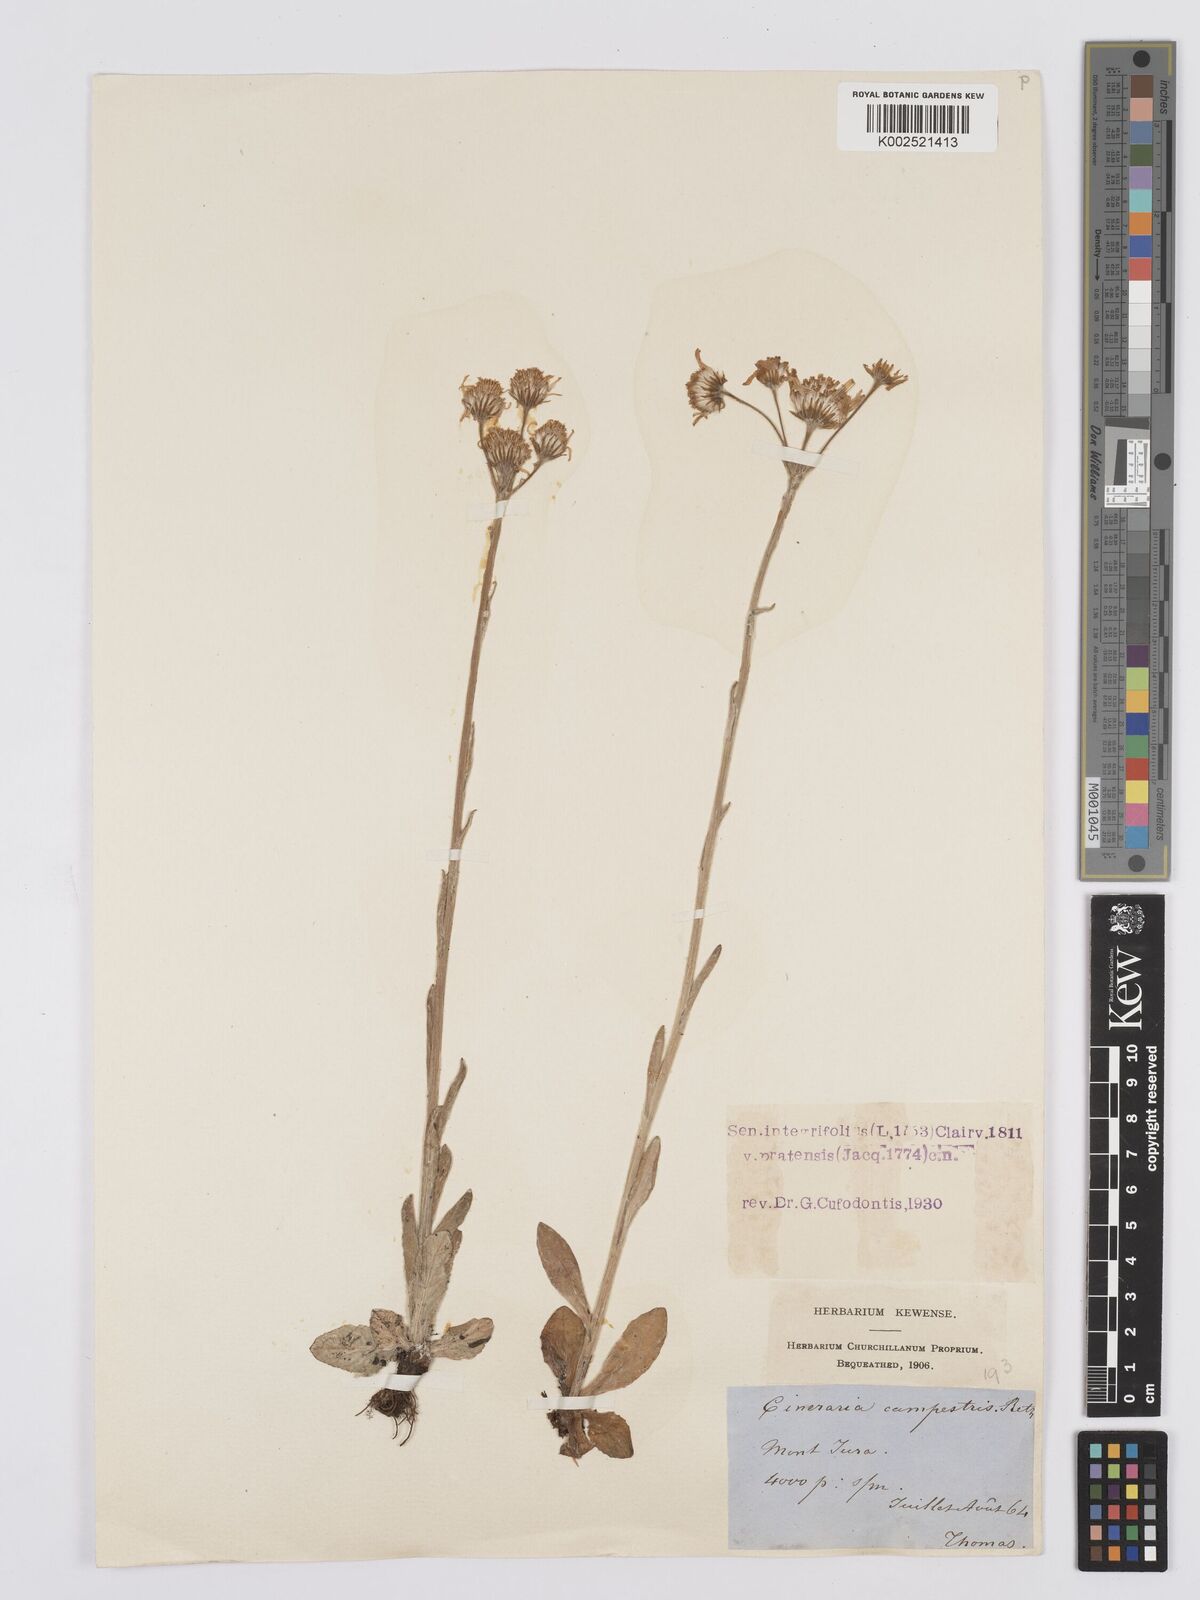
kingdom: Plantae
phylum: Tracheophyta
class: Magnoliopsida
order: Asterales
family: Asteraceae
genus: Tephroseris
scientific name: Tephroseris integrifolia
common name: Field fleawort
